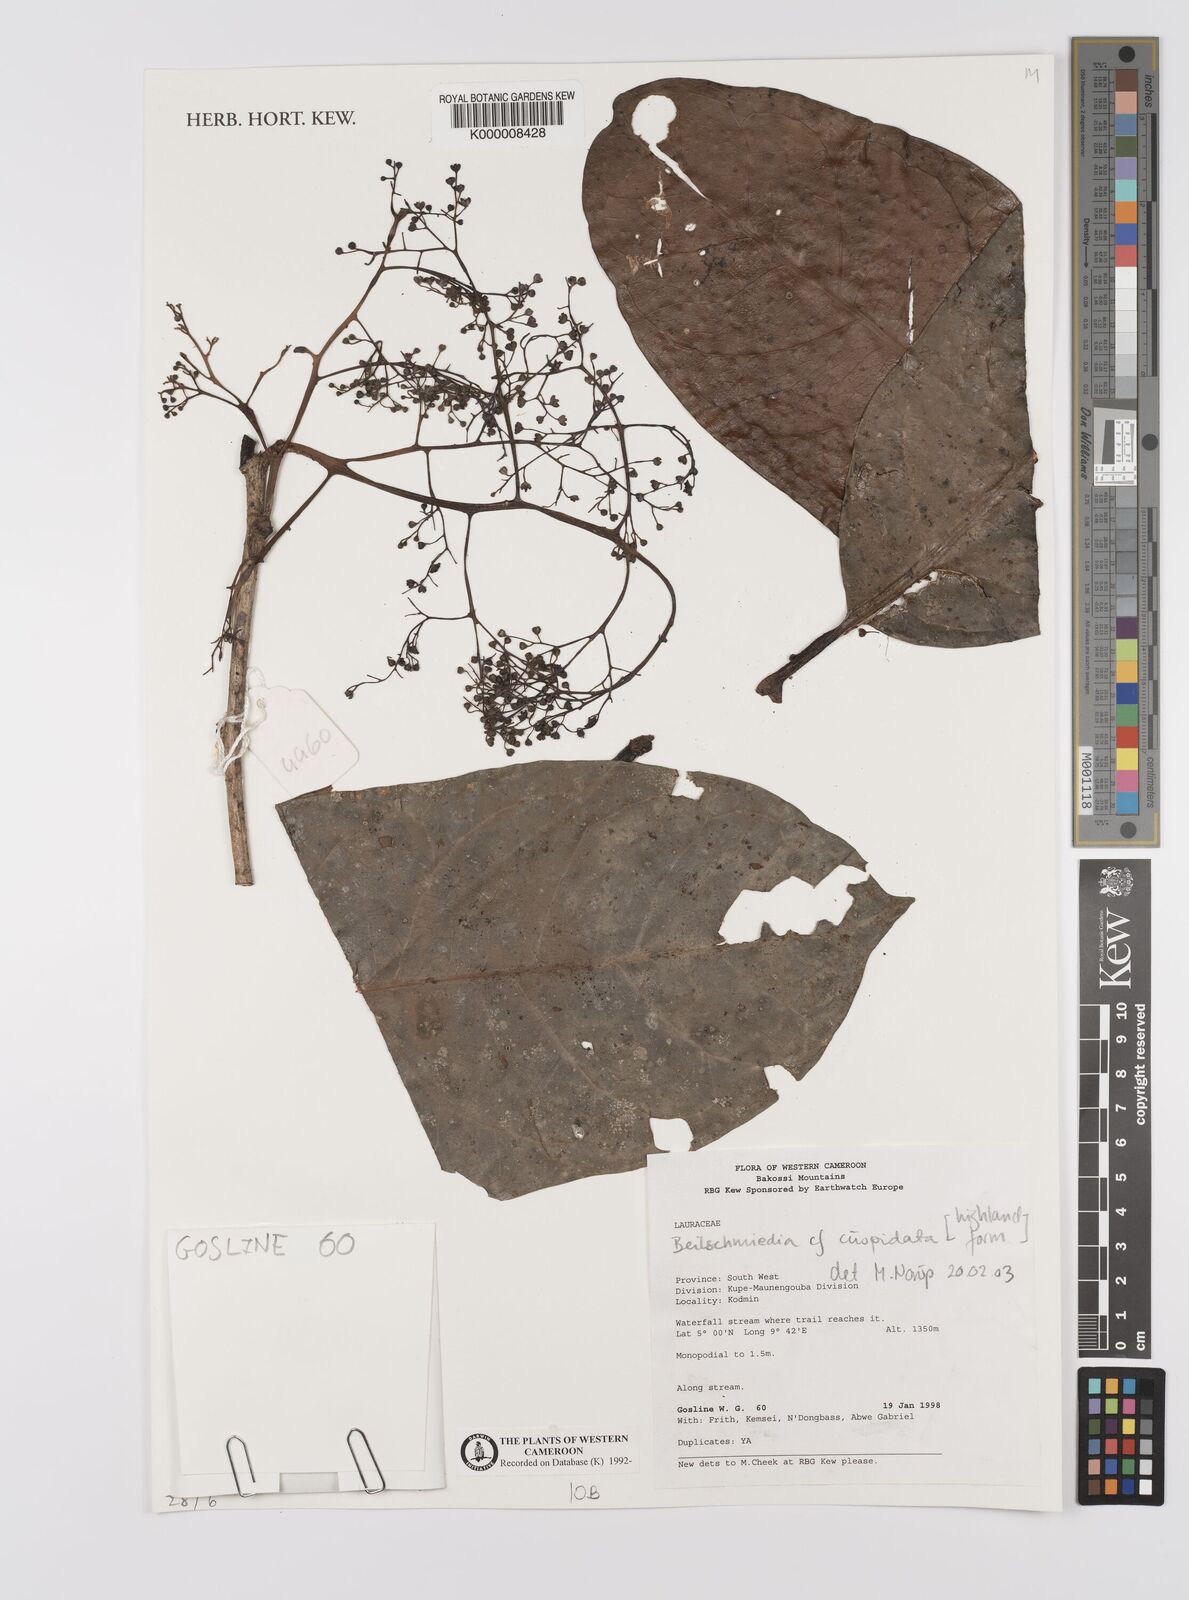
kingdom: Plantae
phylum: Tracheophyta
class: Magnoliopsida
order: Laurales
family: Lauraceae
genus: Beilschmiedia
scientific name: Beilschmiedia cuspidata
